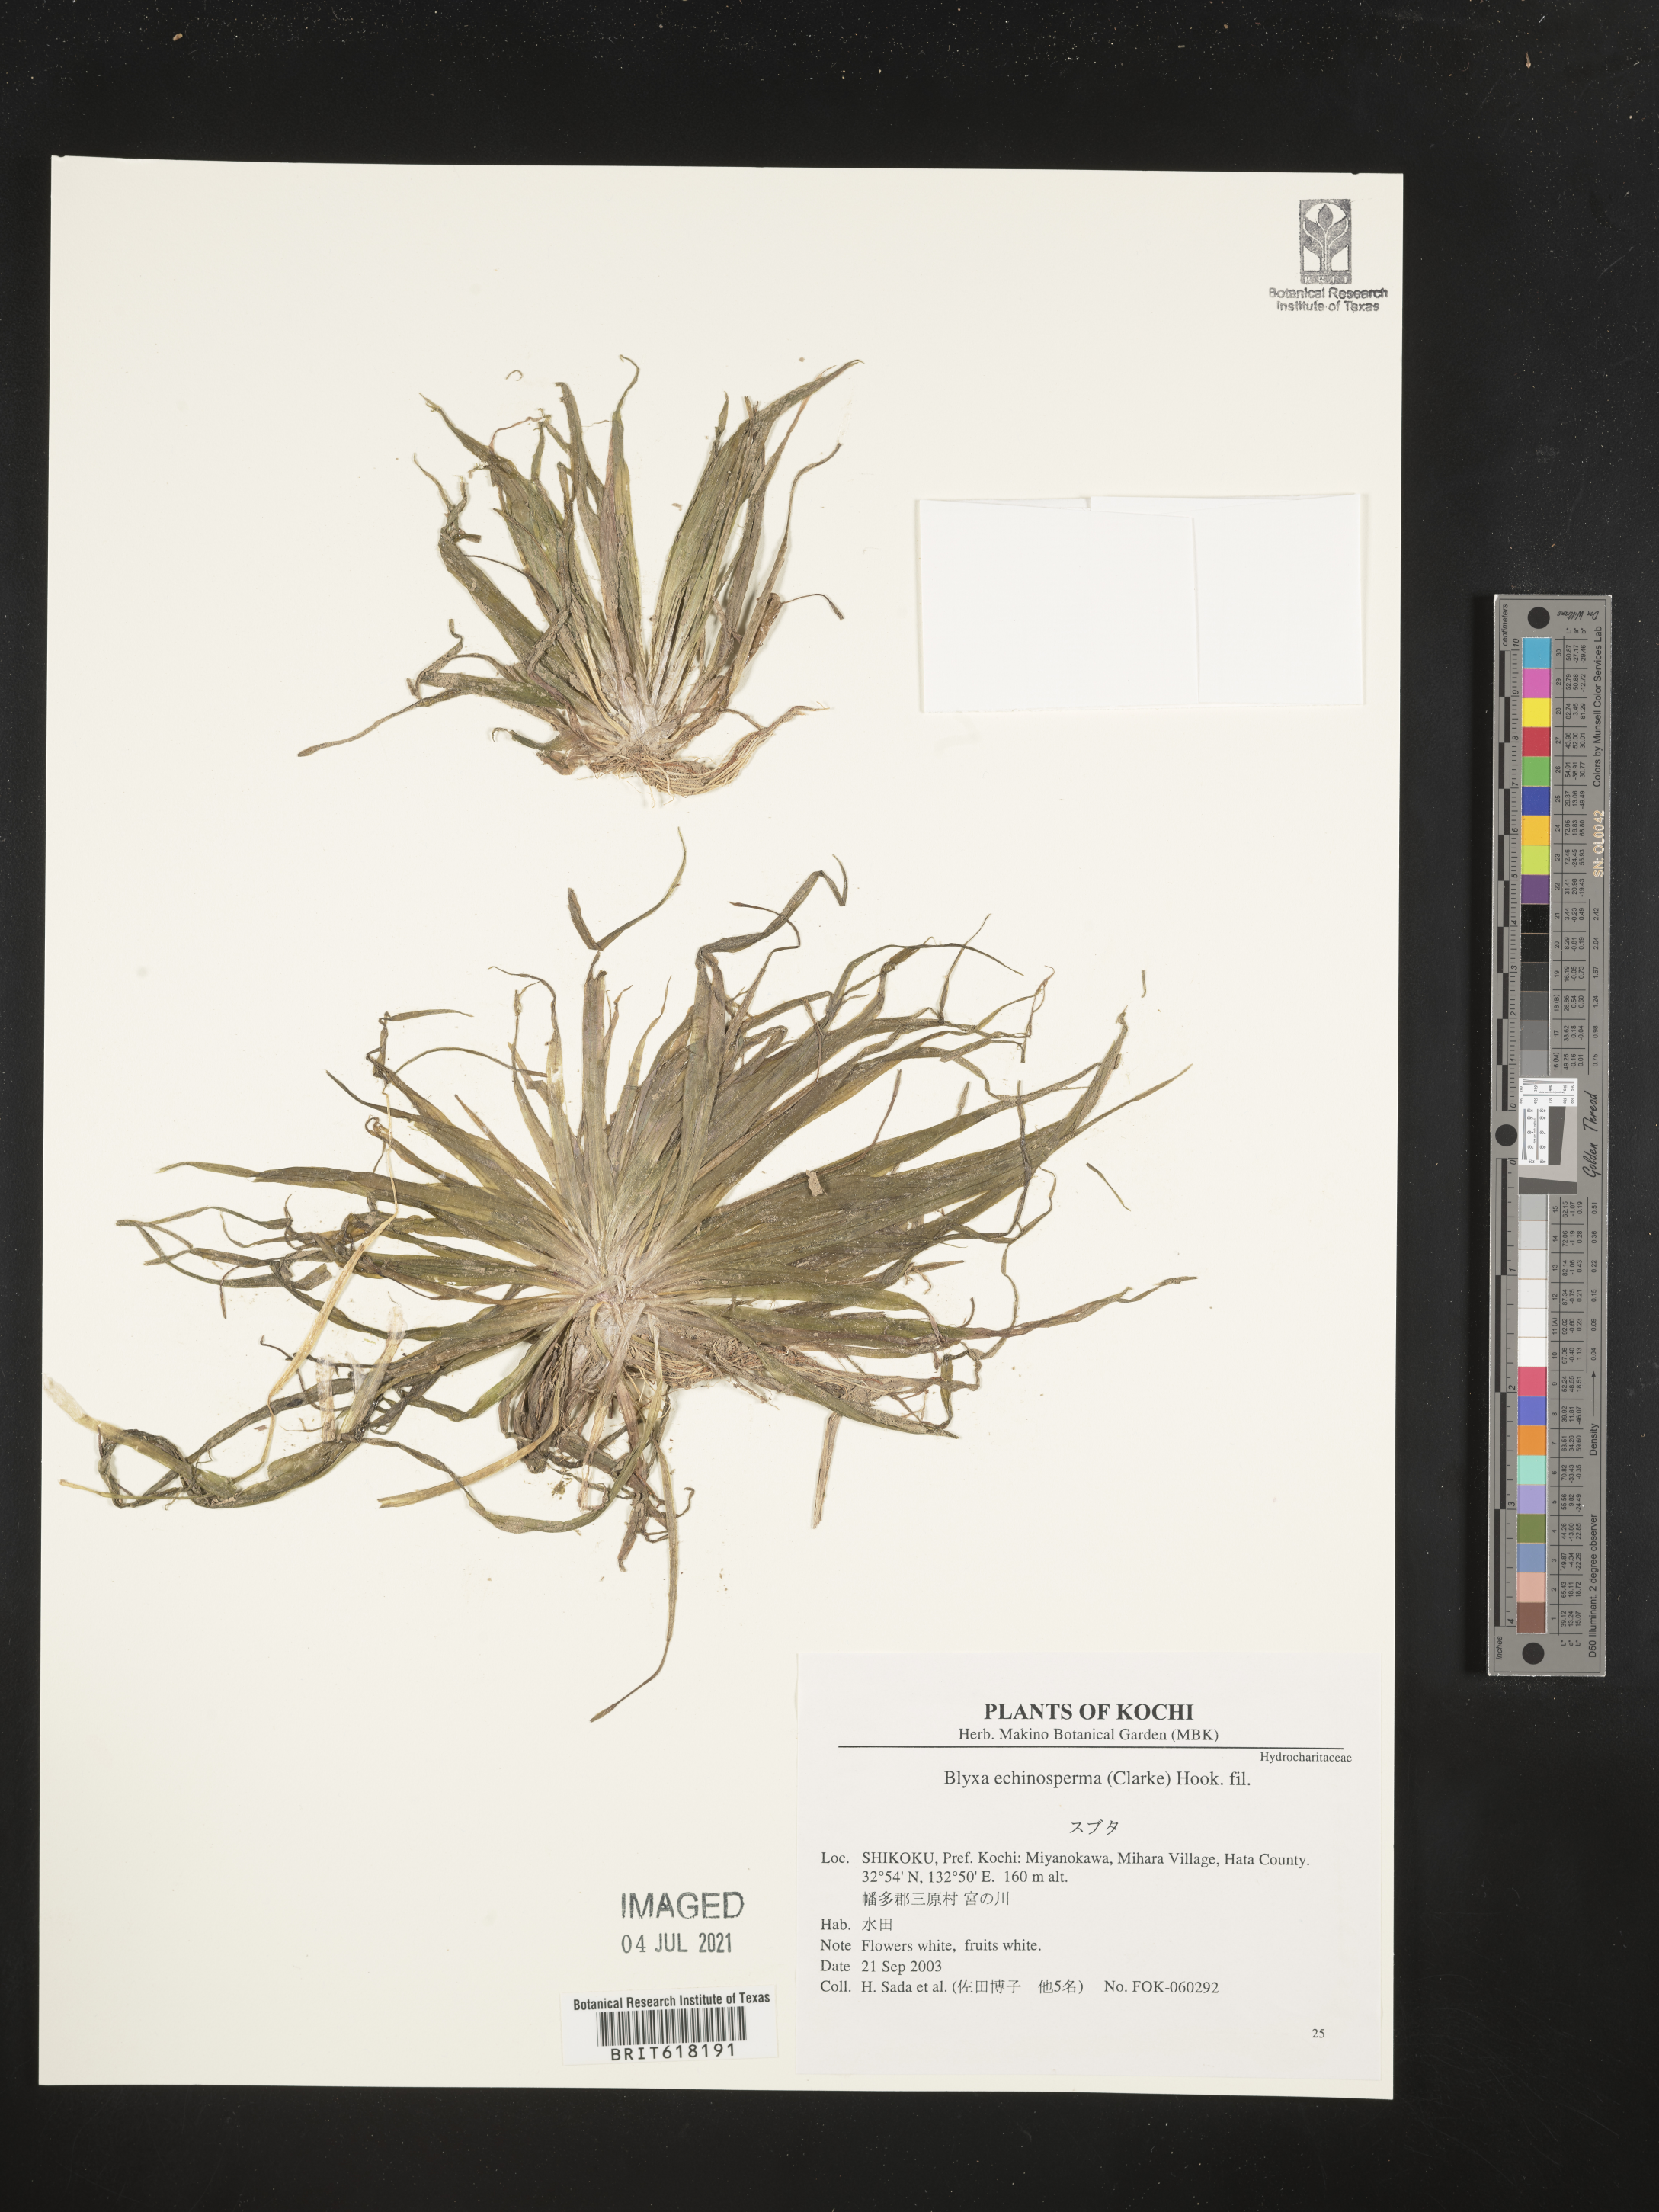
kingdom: Plantae
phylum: Tracheophyta
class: Liliopsida
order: Alismatales
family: Hydrocharitaceae
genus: Blyxa
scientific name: Blyxa echinosperma
